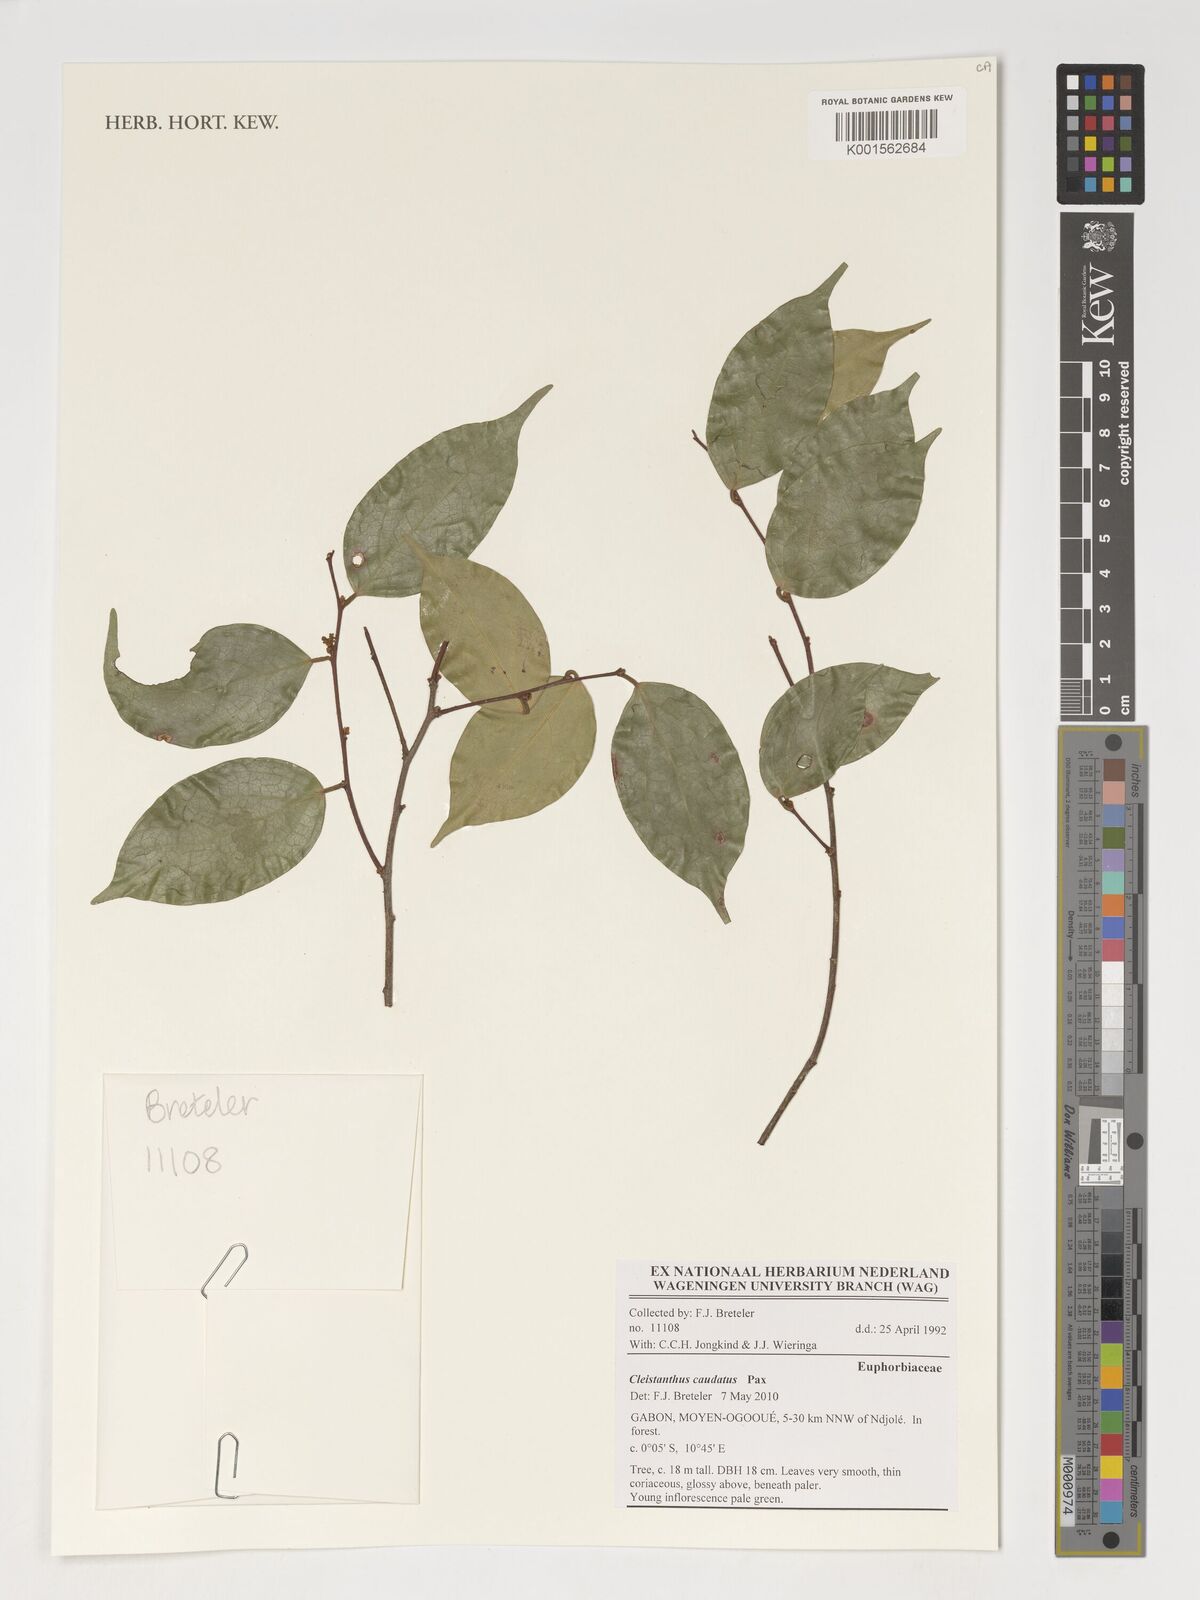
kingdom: Plantae
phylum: Tracheophyta
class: Magnoliopsida
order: Malpighiales
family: Phyllanthaceae
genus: Cleistanthus
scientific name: Cleistanthus caudatus
